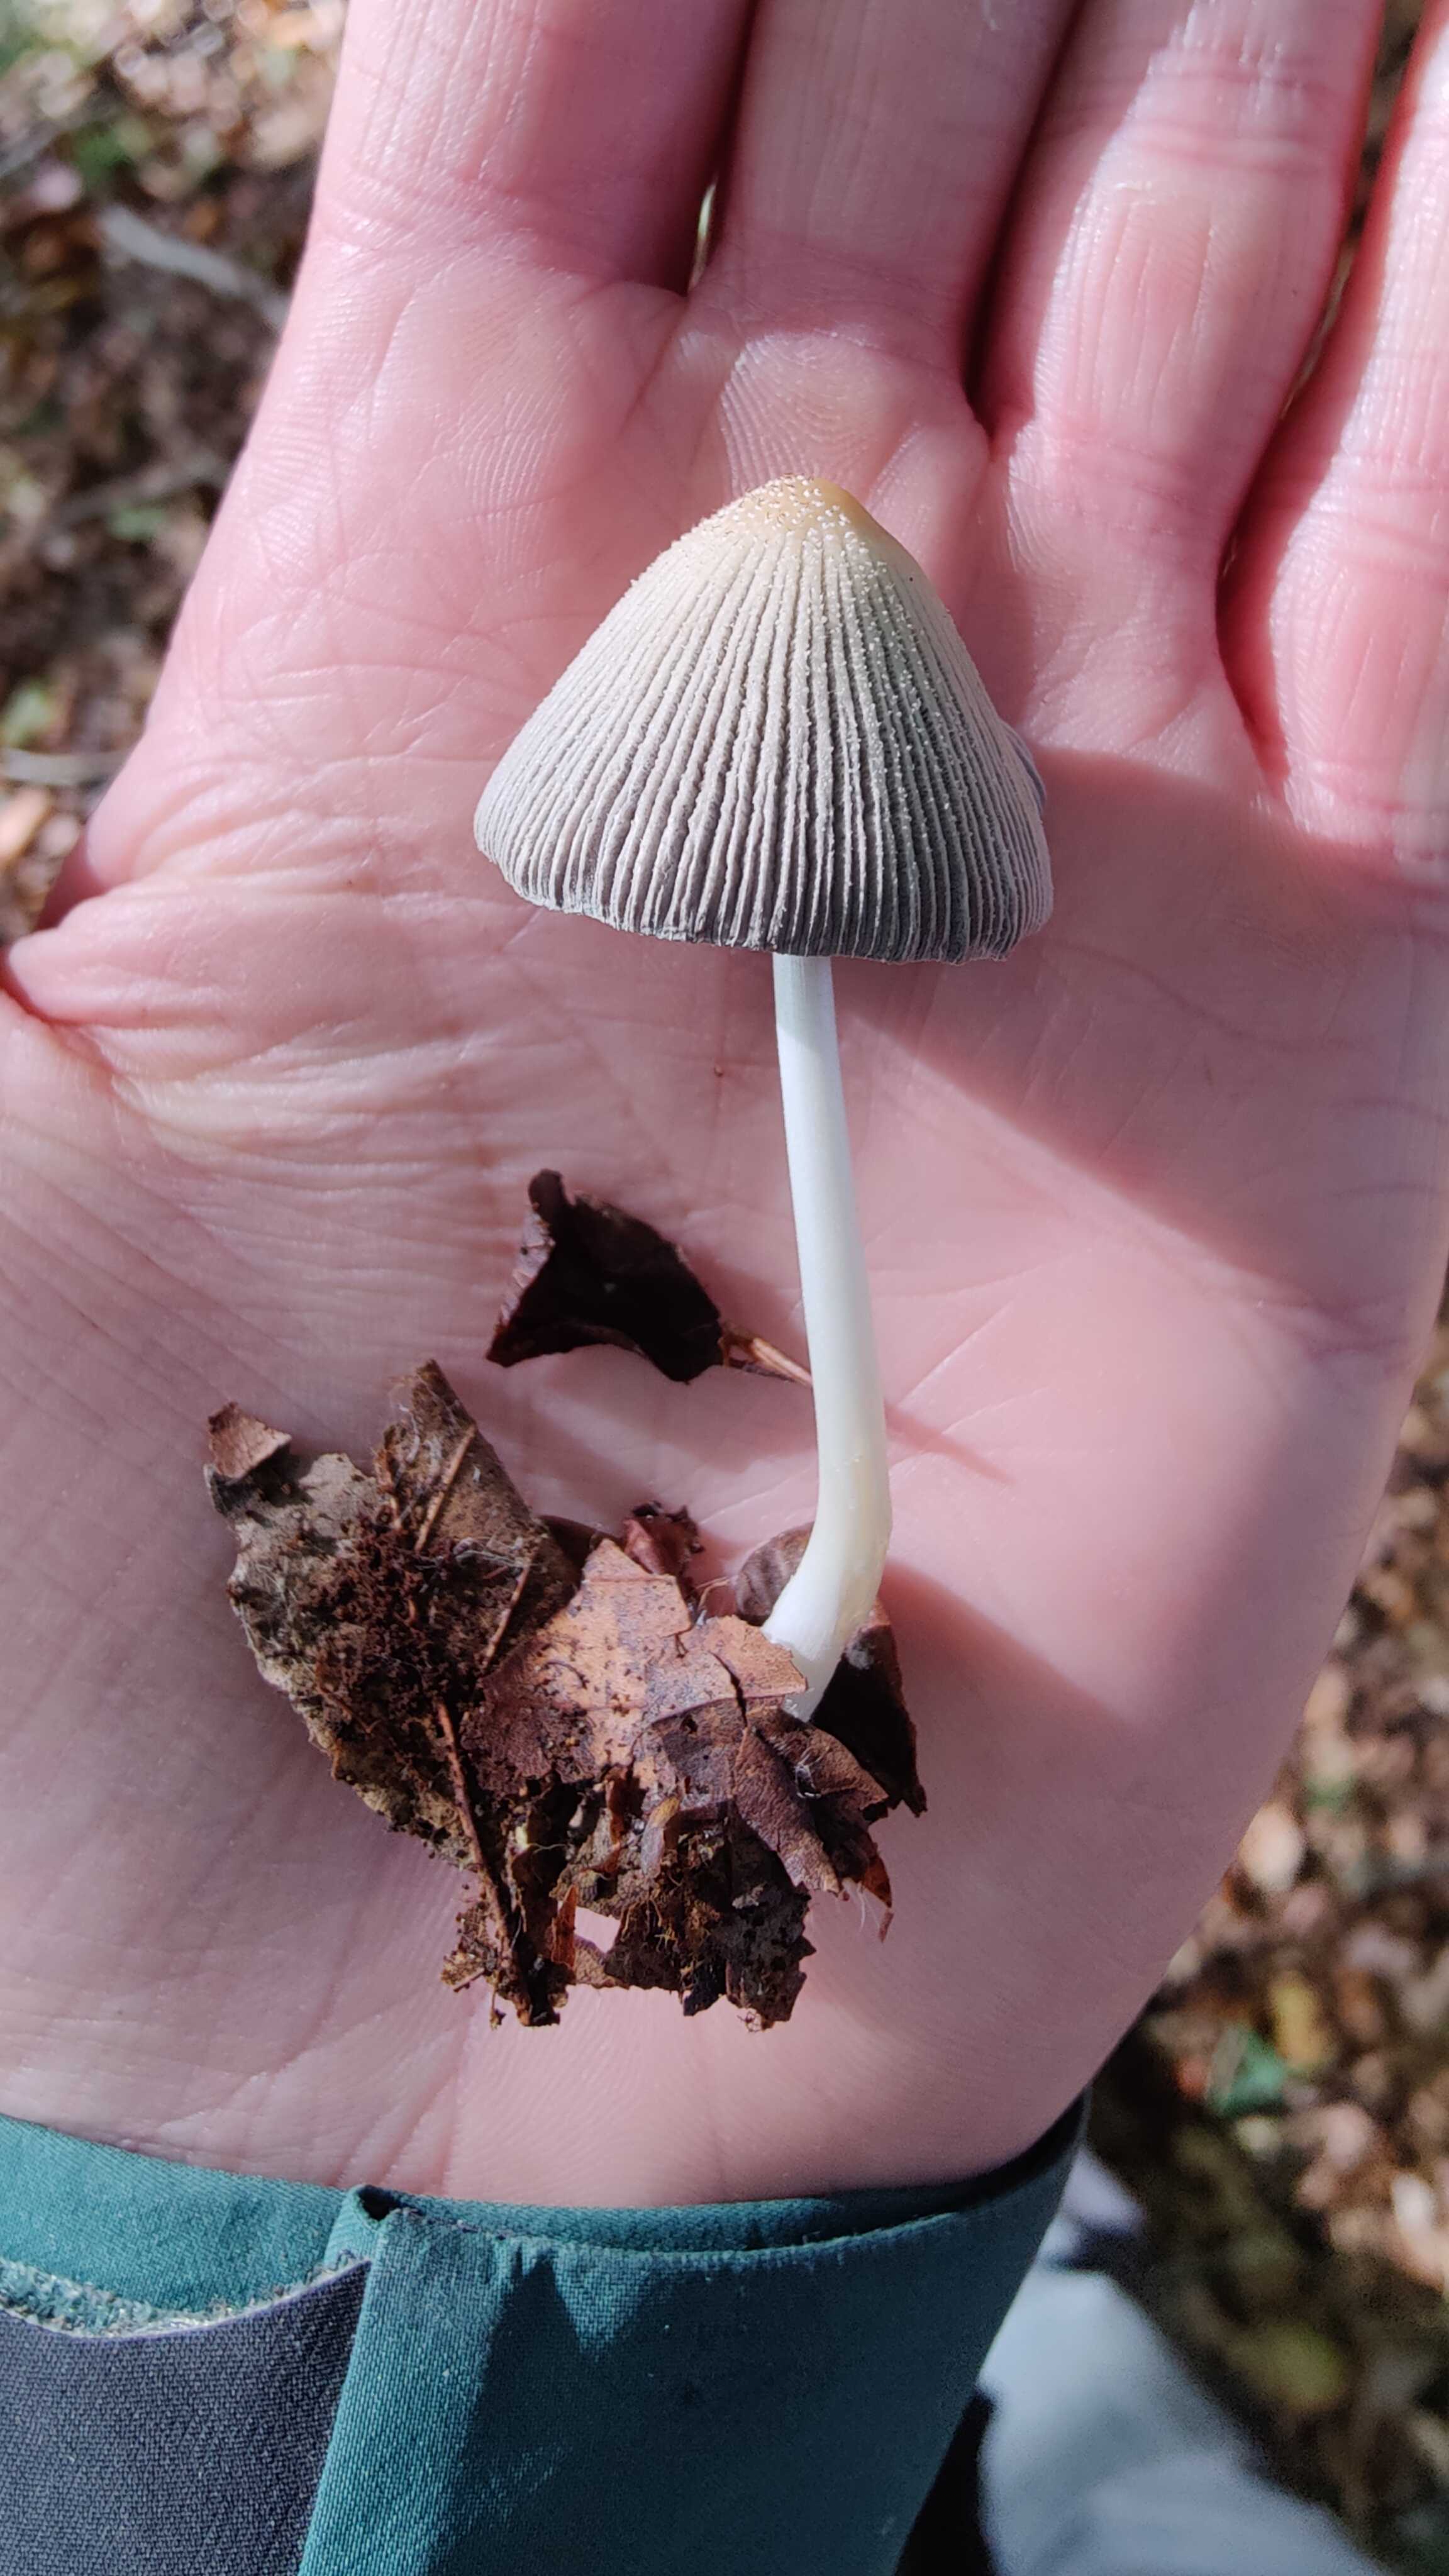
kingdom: Fungi
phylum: Basidiomycota
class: Agaricomycetes
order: Agaricales
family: Psathyrellaceae
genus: Coprinellus
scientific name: Coprinellus
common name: blækhat
